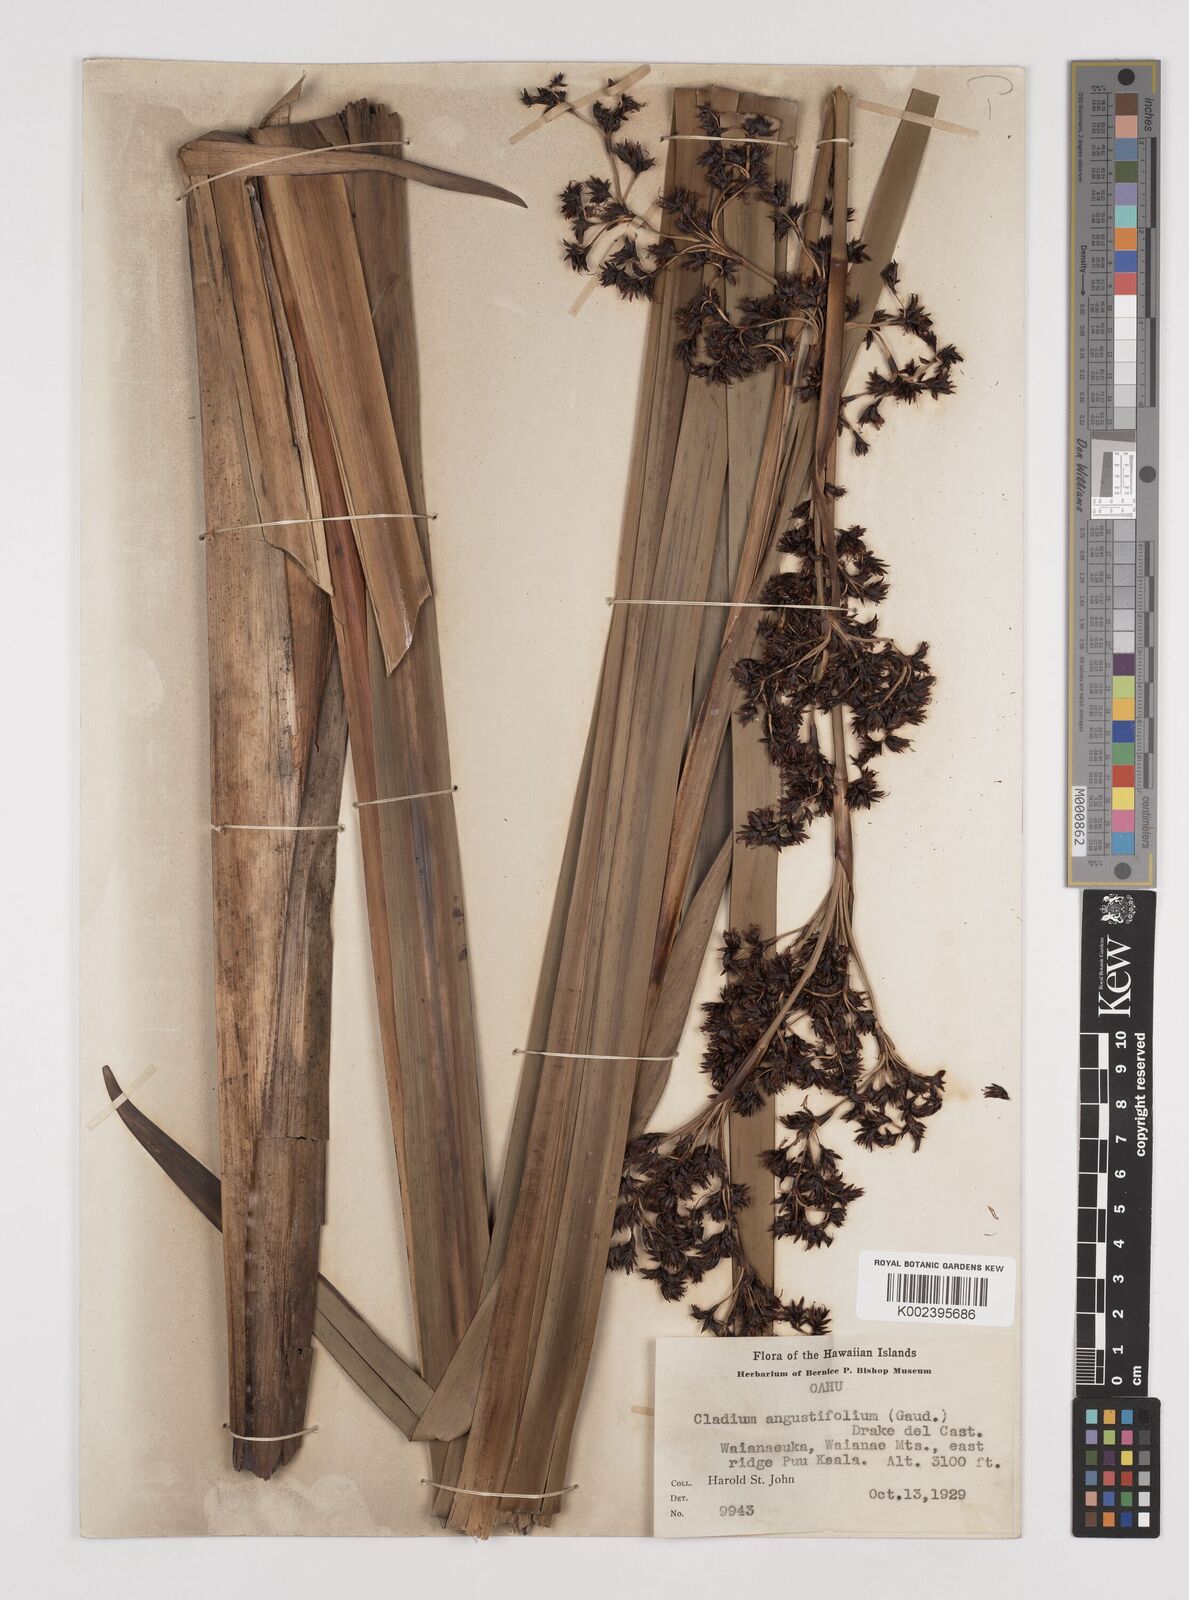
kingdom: Plantae
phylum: Tracheophyta
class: Liliopsida
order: Poales
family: Cyperaceae
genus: Machaerina
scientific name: Machaerina angustifolia
